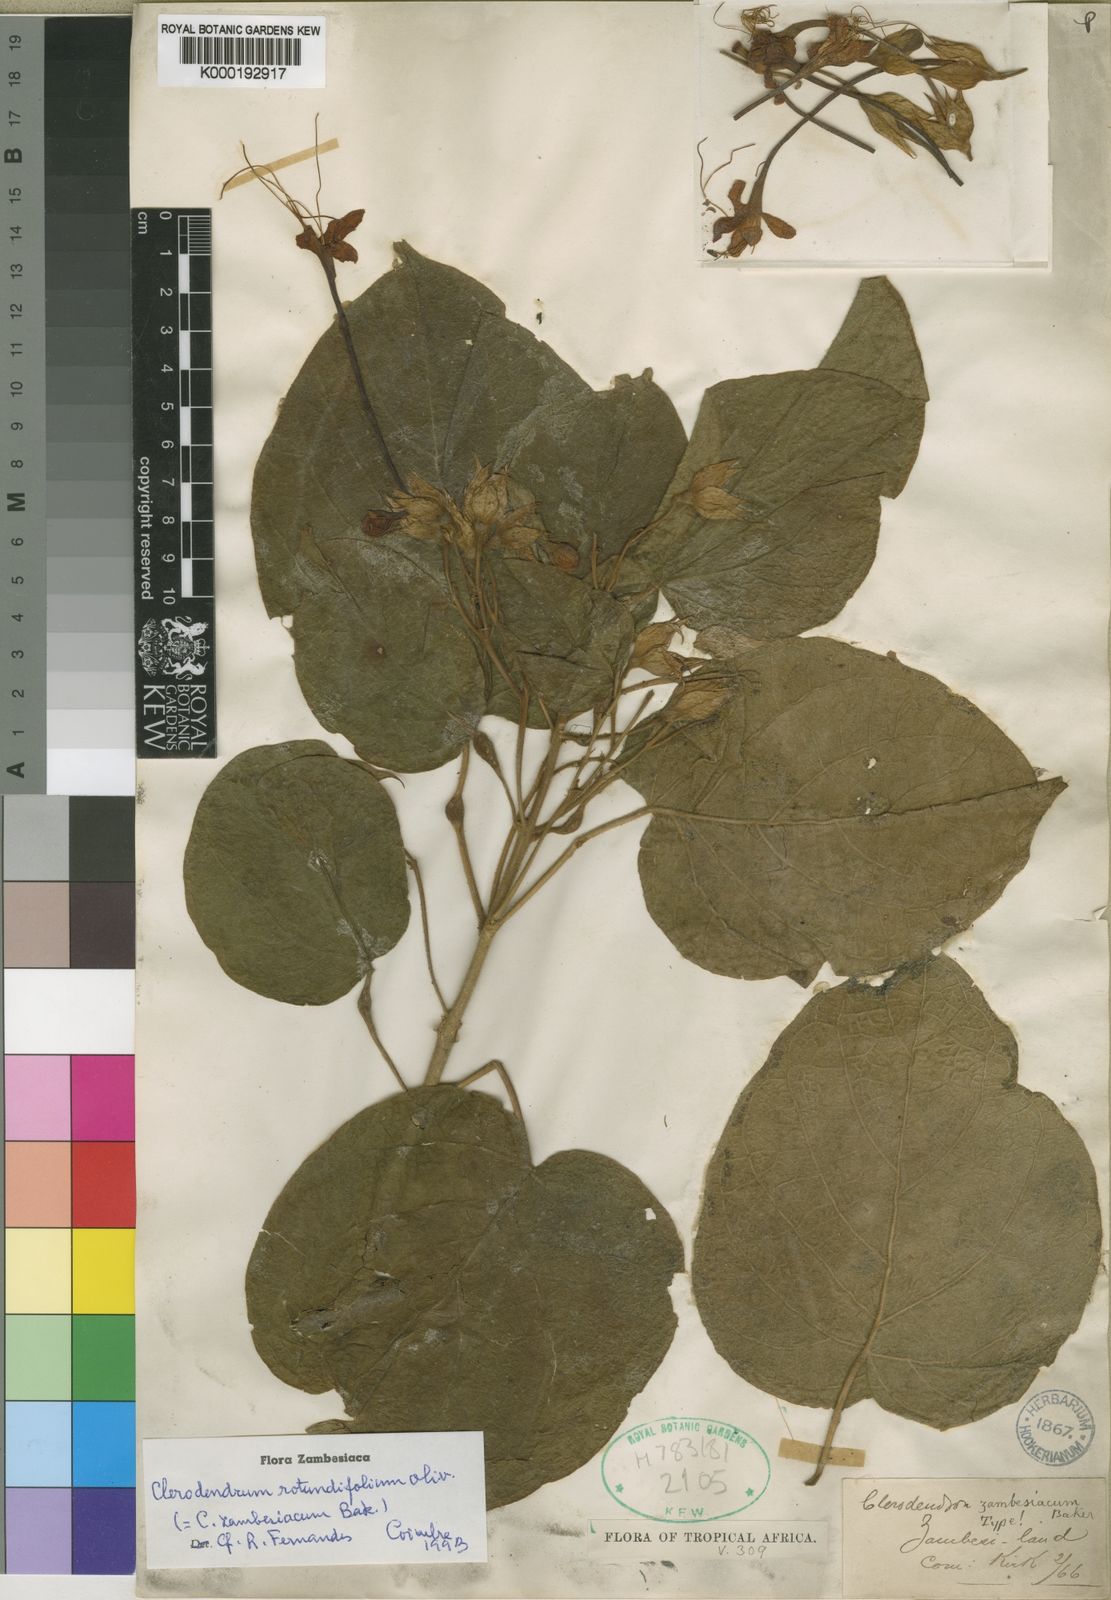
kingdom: Plantae
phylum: Tracheophyta
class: Magnoliopsida
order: Lamiales
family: Lamiaceae
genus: Clerodendrum
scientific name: Clerodendrum rotundifolium
